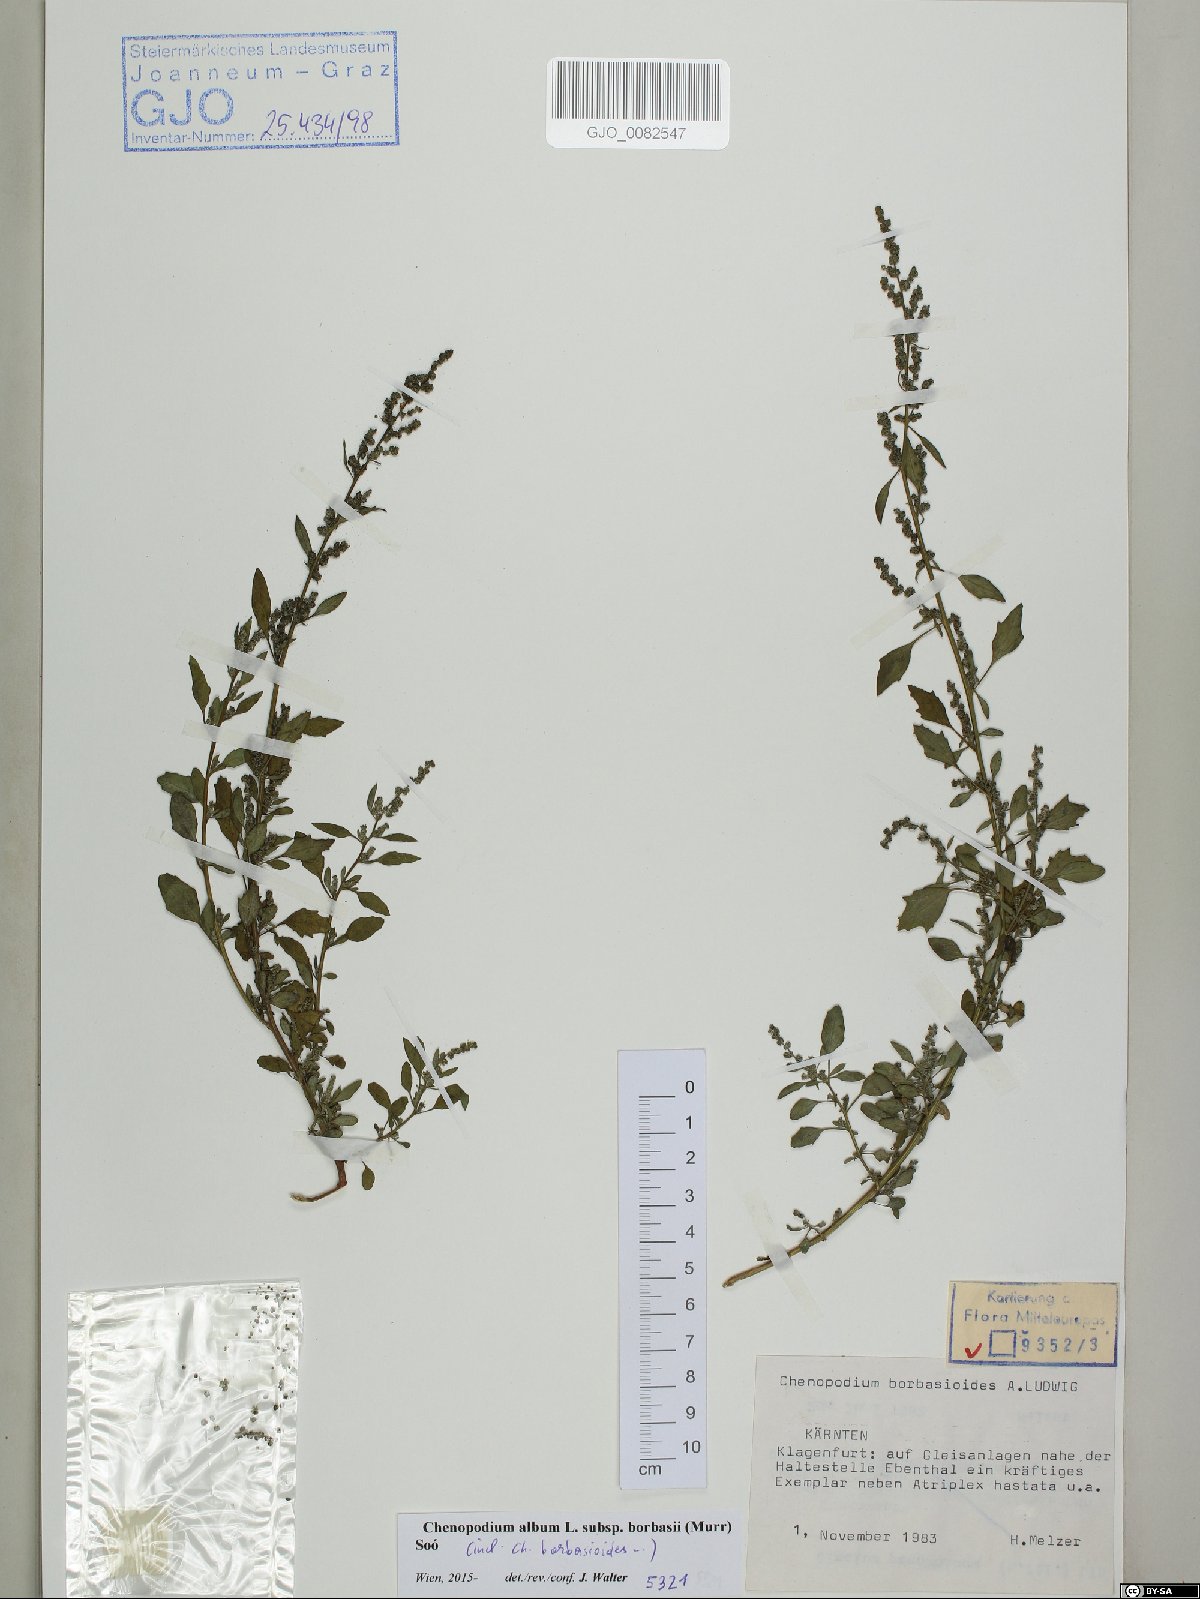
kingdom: Plantae
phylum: Tracheophyta
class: Magnoliopsida
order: Caryophyllales
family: Amaranthaceae
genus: Chenopodium
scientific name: Chenopodium borbasii
